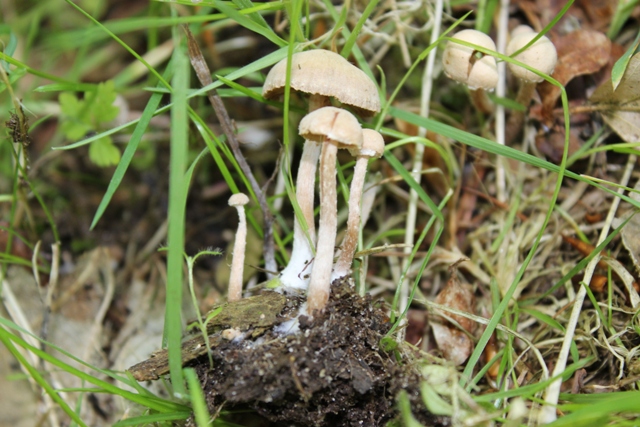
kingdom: Fungi
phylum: Basidiomycota
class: Agaricomycetes
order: Agaricales
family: Tubariaceae
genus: Tubaria
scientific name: Tubaria conspersa
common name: bleg fnughat
